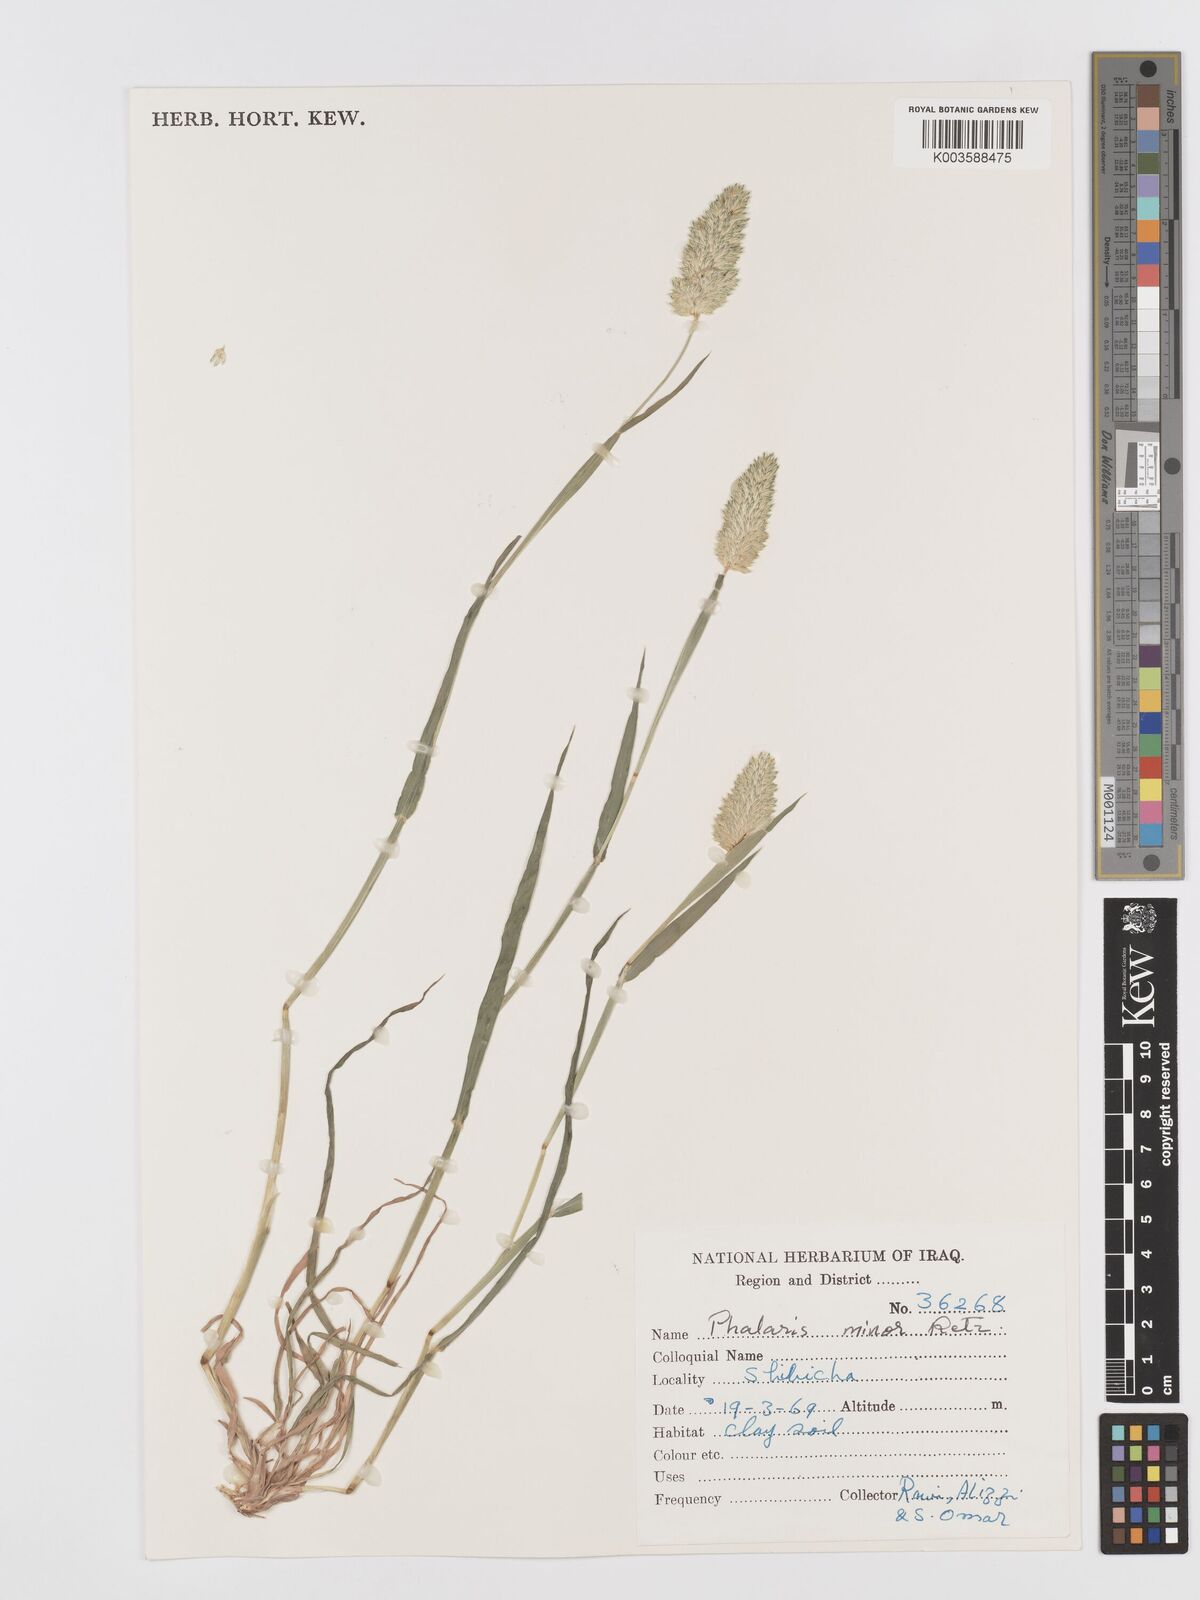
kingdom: Plantae
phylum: Tracheophyta
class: Liliopsida
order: Poales
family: Poaceae
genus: Phalaris
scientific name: Phalaris minor
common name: Littleseed canarygrass
